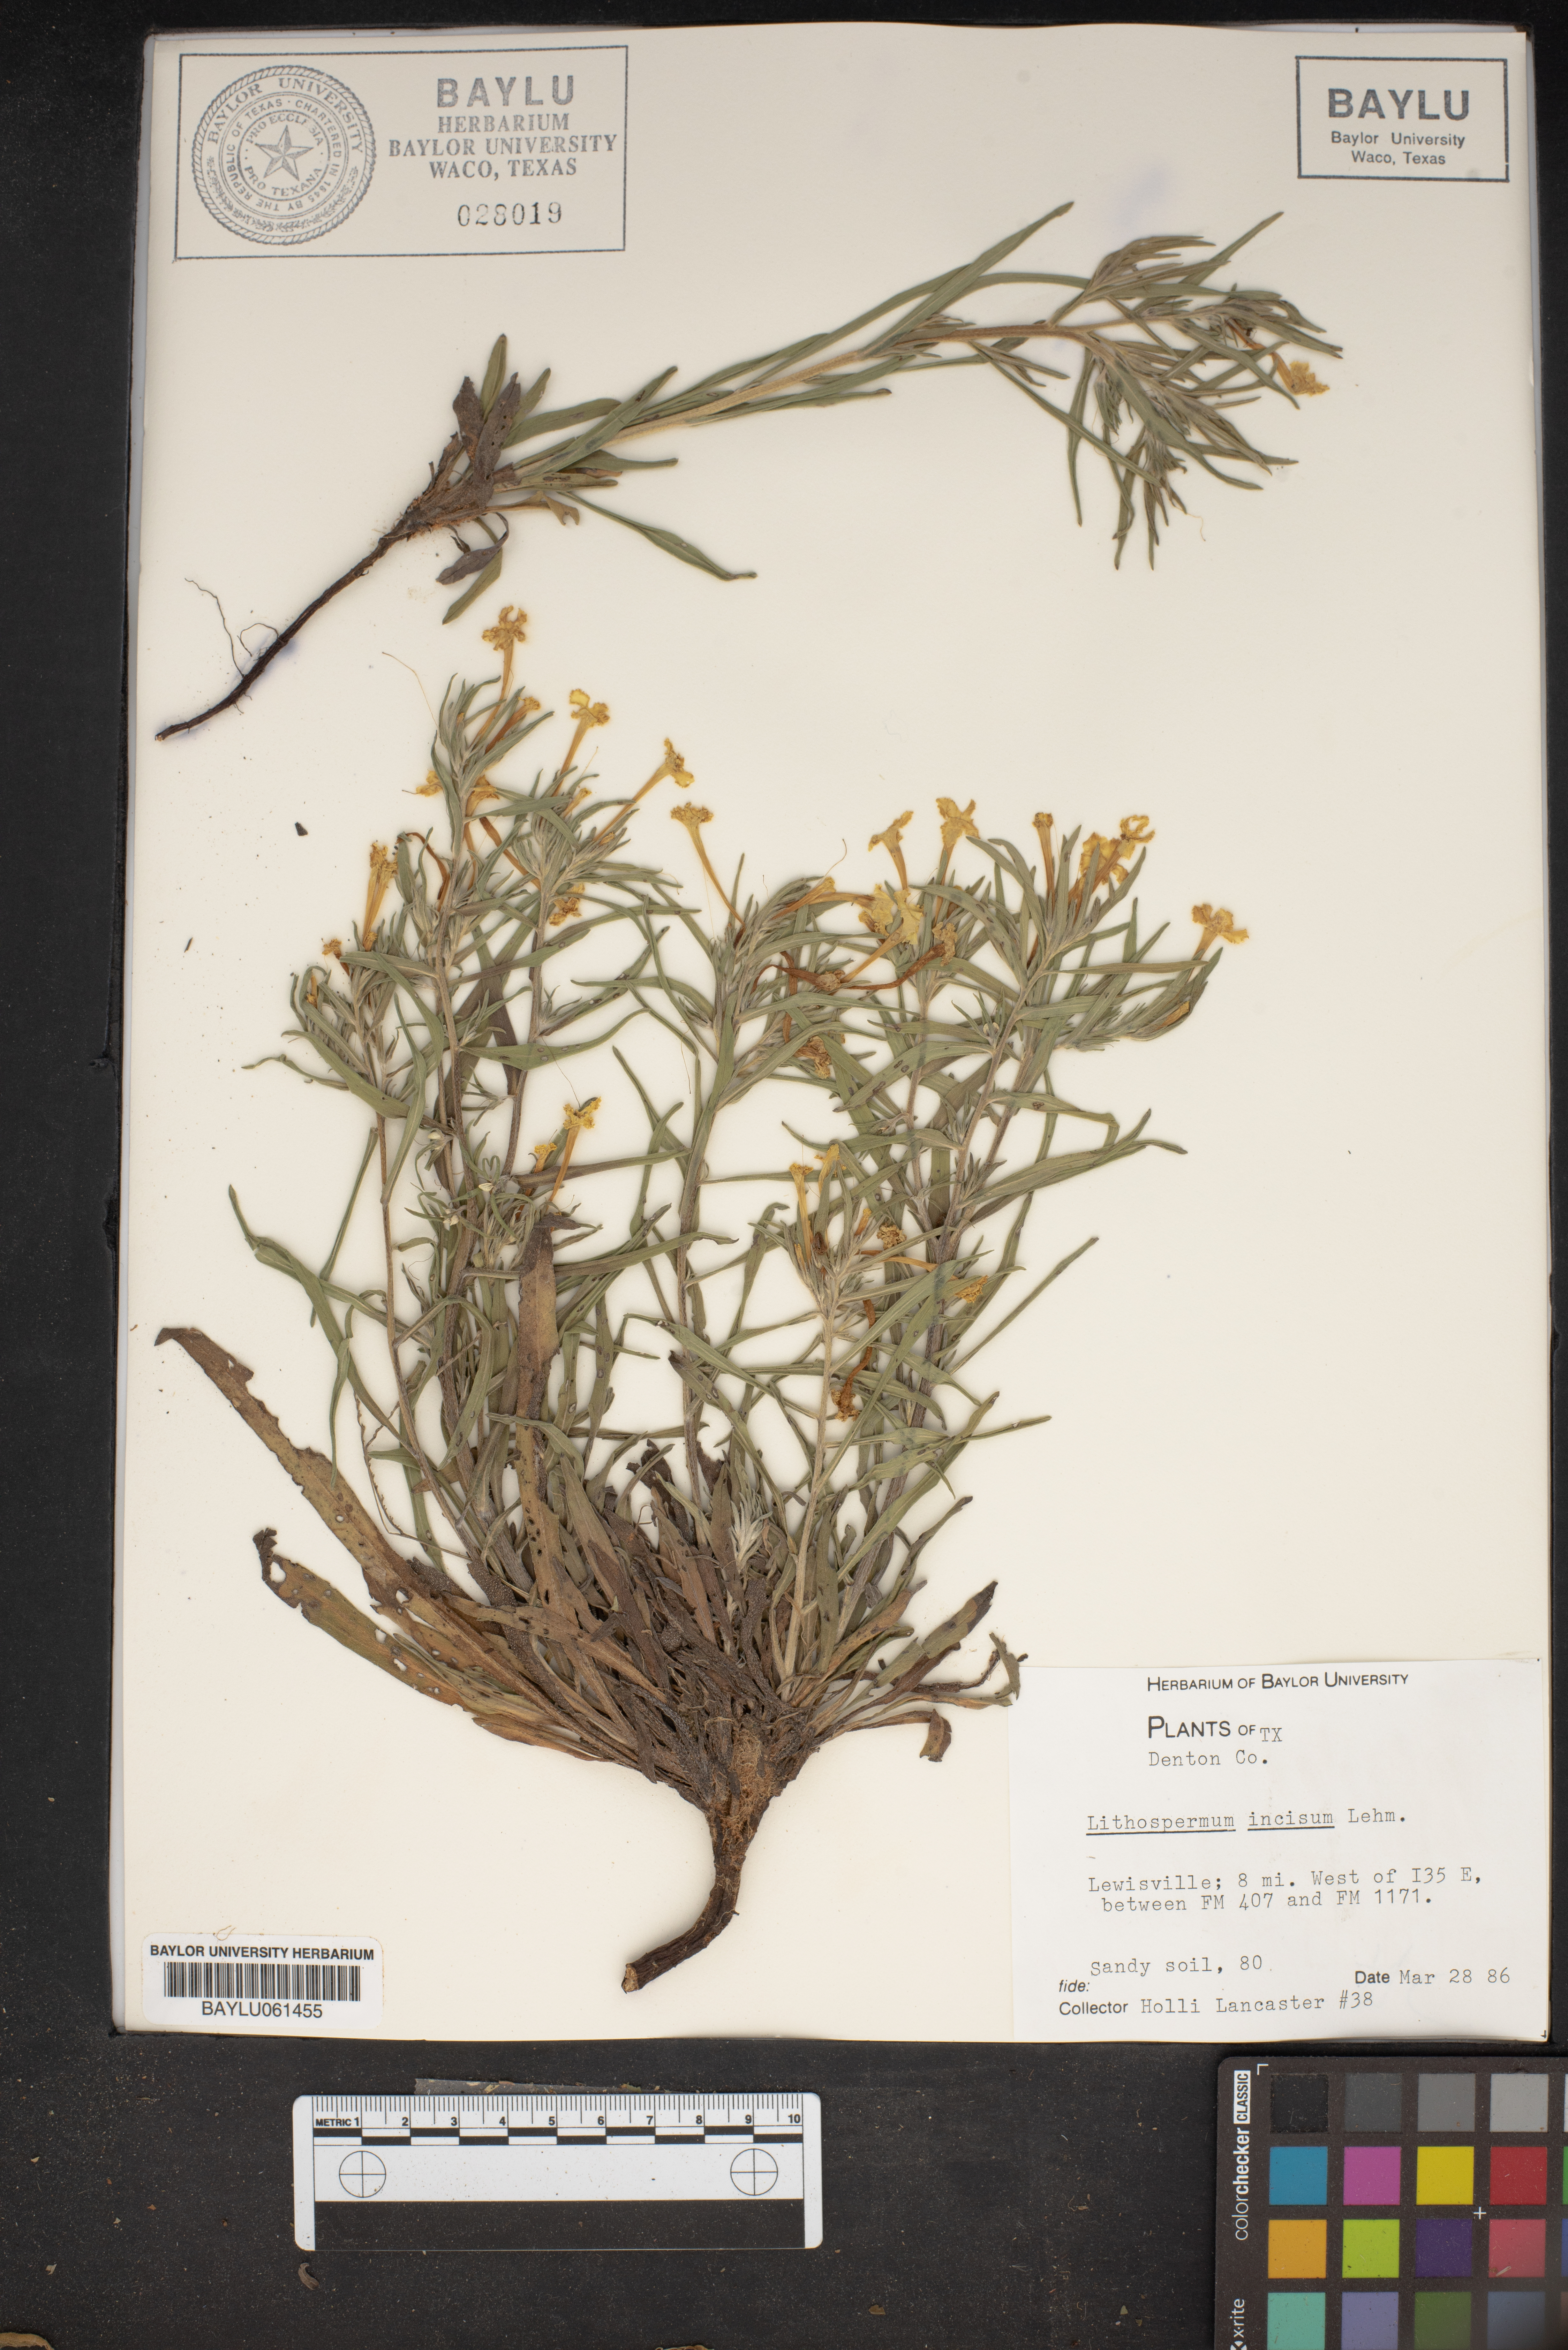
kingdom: Plantae
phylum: Tracheophyta
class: Magnoliopsida
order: Boraginales
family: Boraginaceae
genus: Lithospermum
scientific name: Lithospermum incisum
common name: Fringed gromwell
